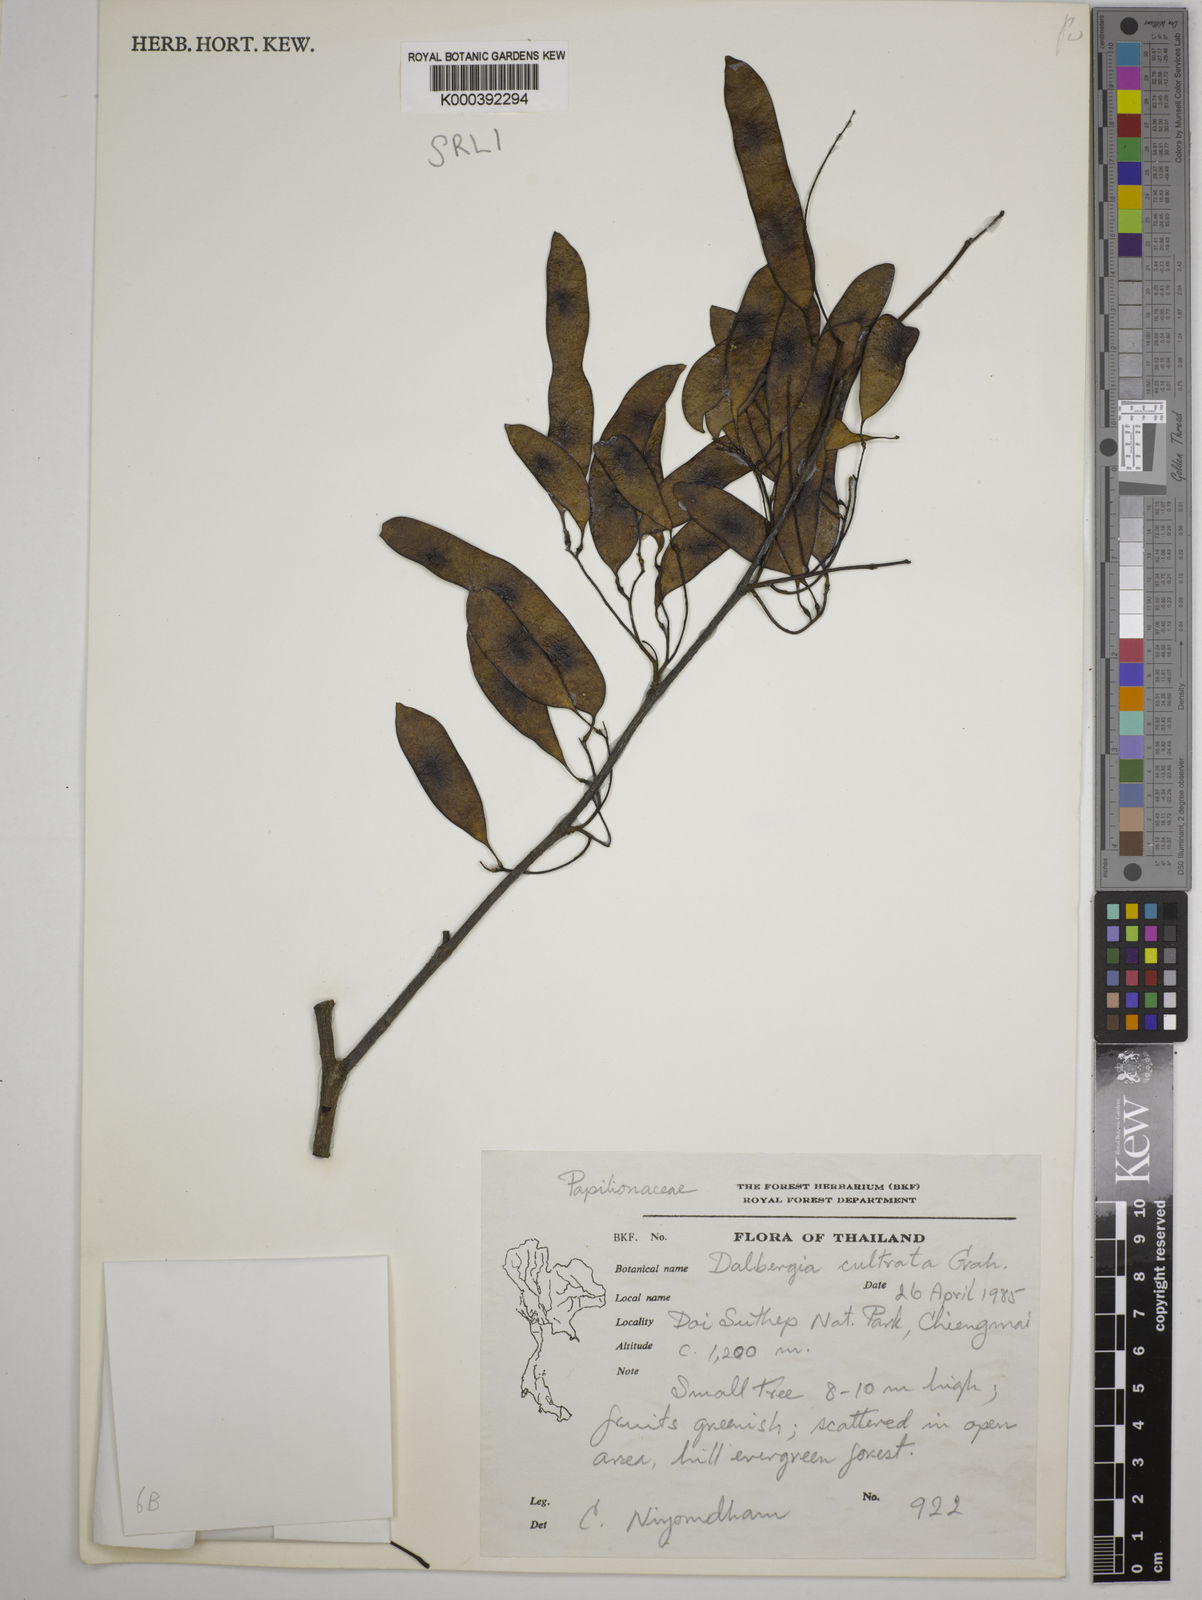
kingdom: Plantae
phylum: Tracheophyta
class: Magnoliopsida
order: Fabales
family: Fabaceae
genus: Dalbergia
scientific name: Dalbergia
